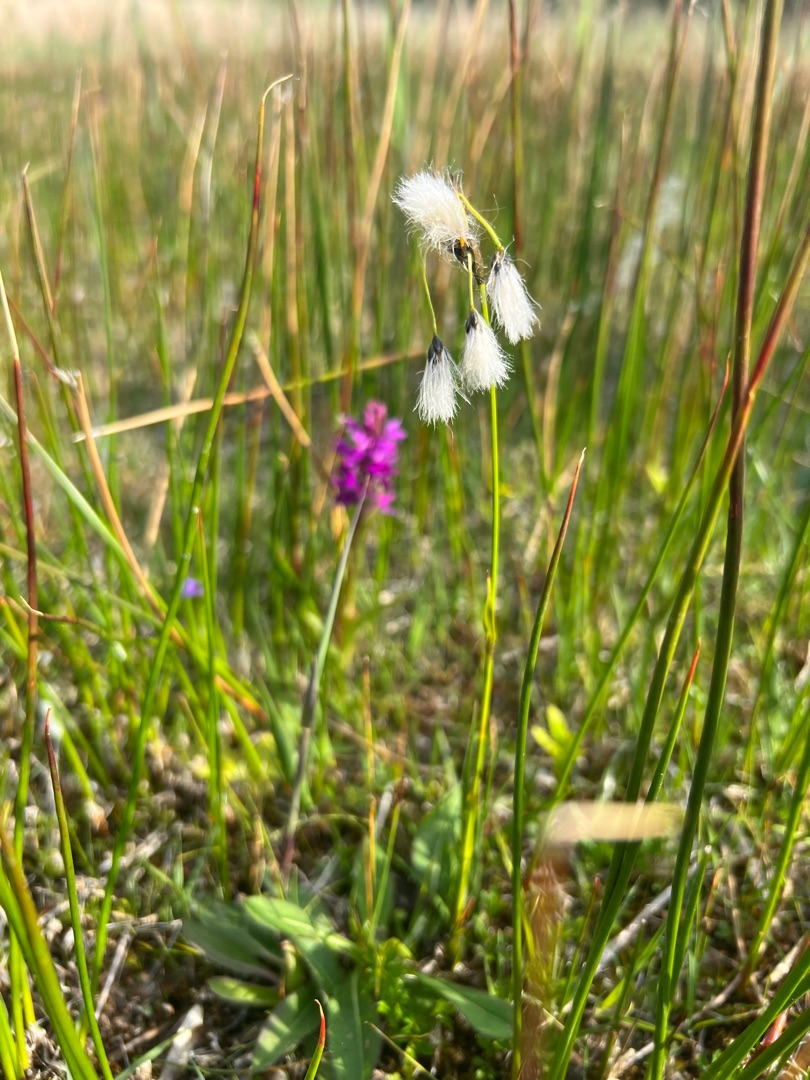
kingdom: Plantae
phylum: Tracheophyta
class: Liliopsida
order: Poales
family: Cyperaceae
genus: Eriophorum
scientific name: Eriophorum latifolium
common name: Bredbladet kæruld
